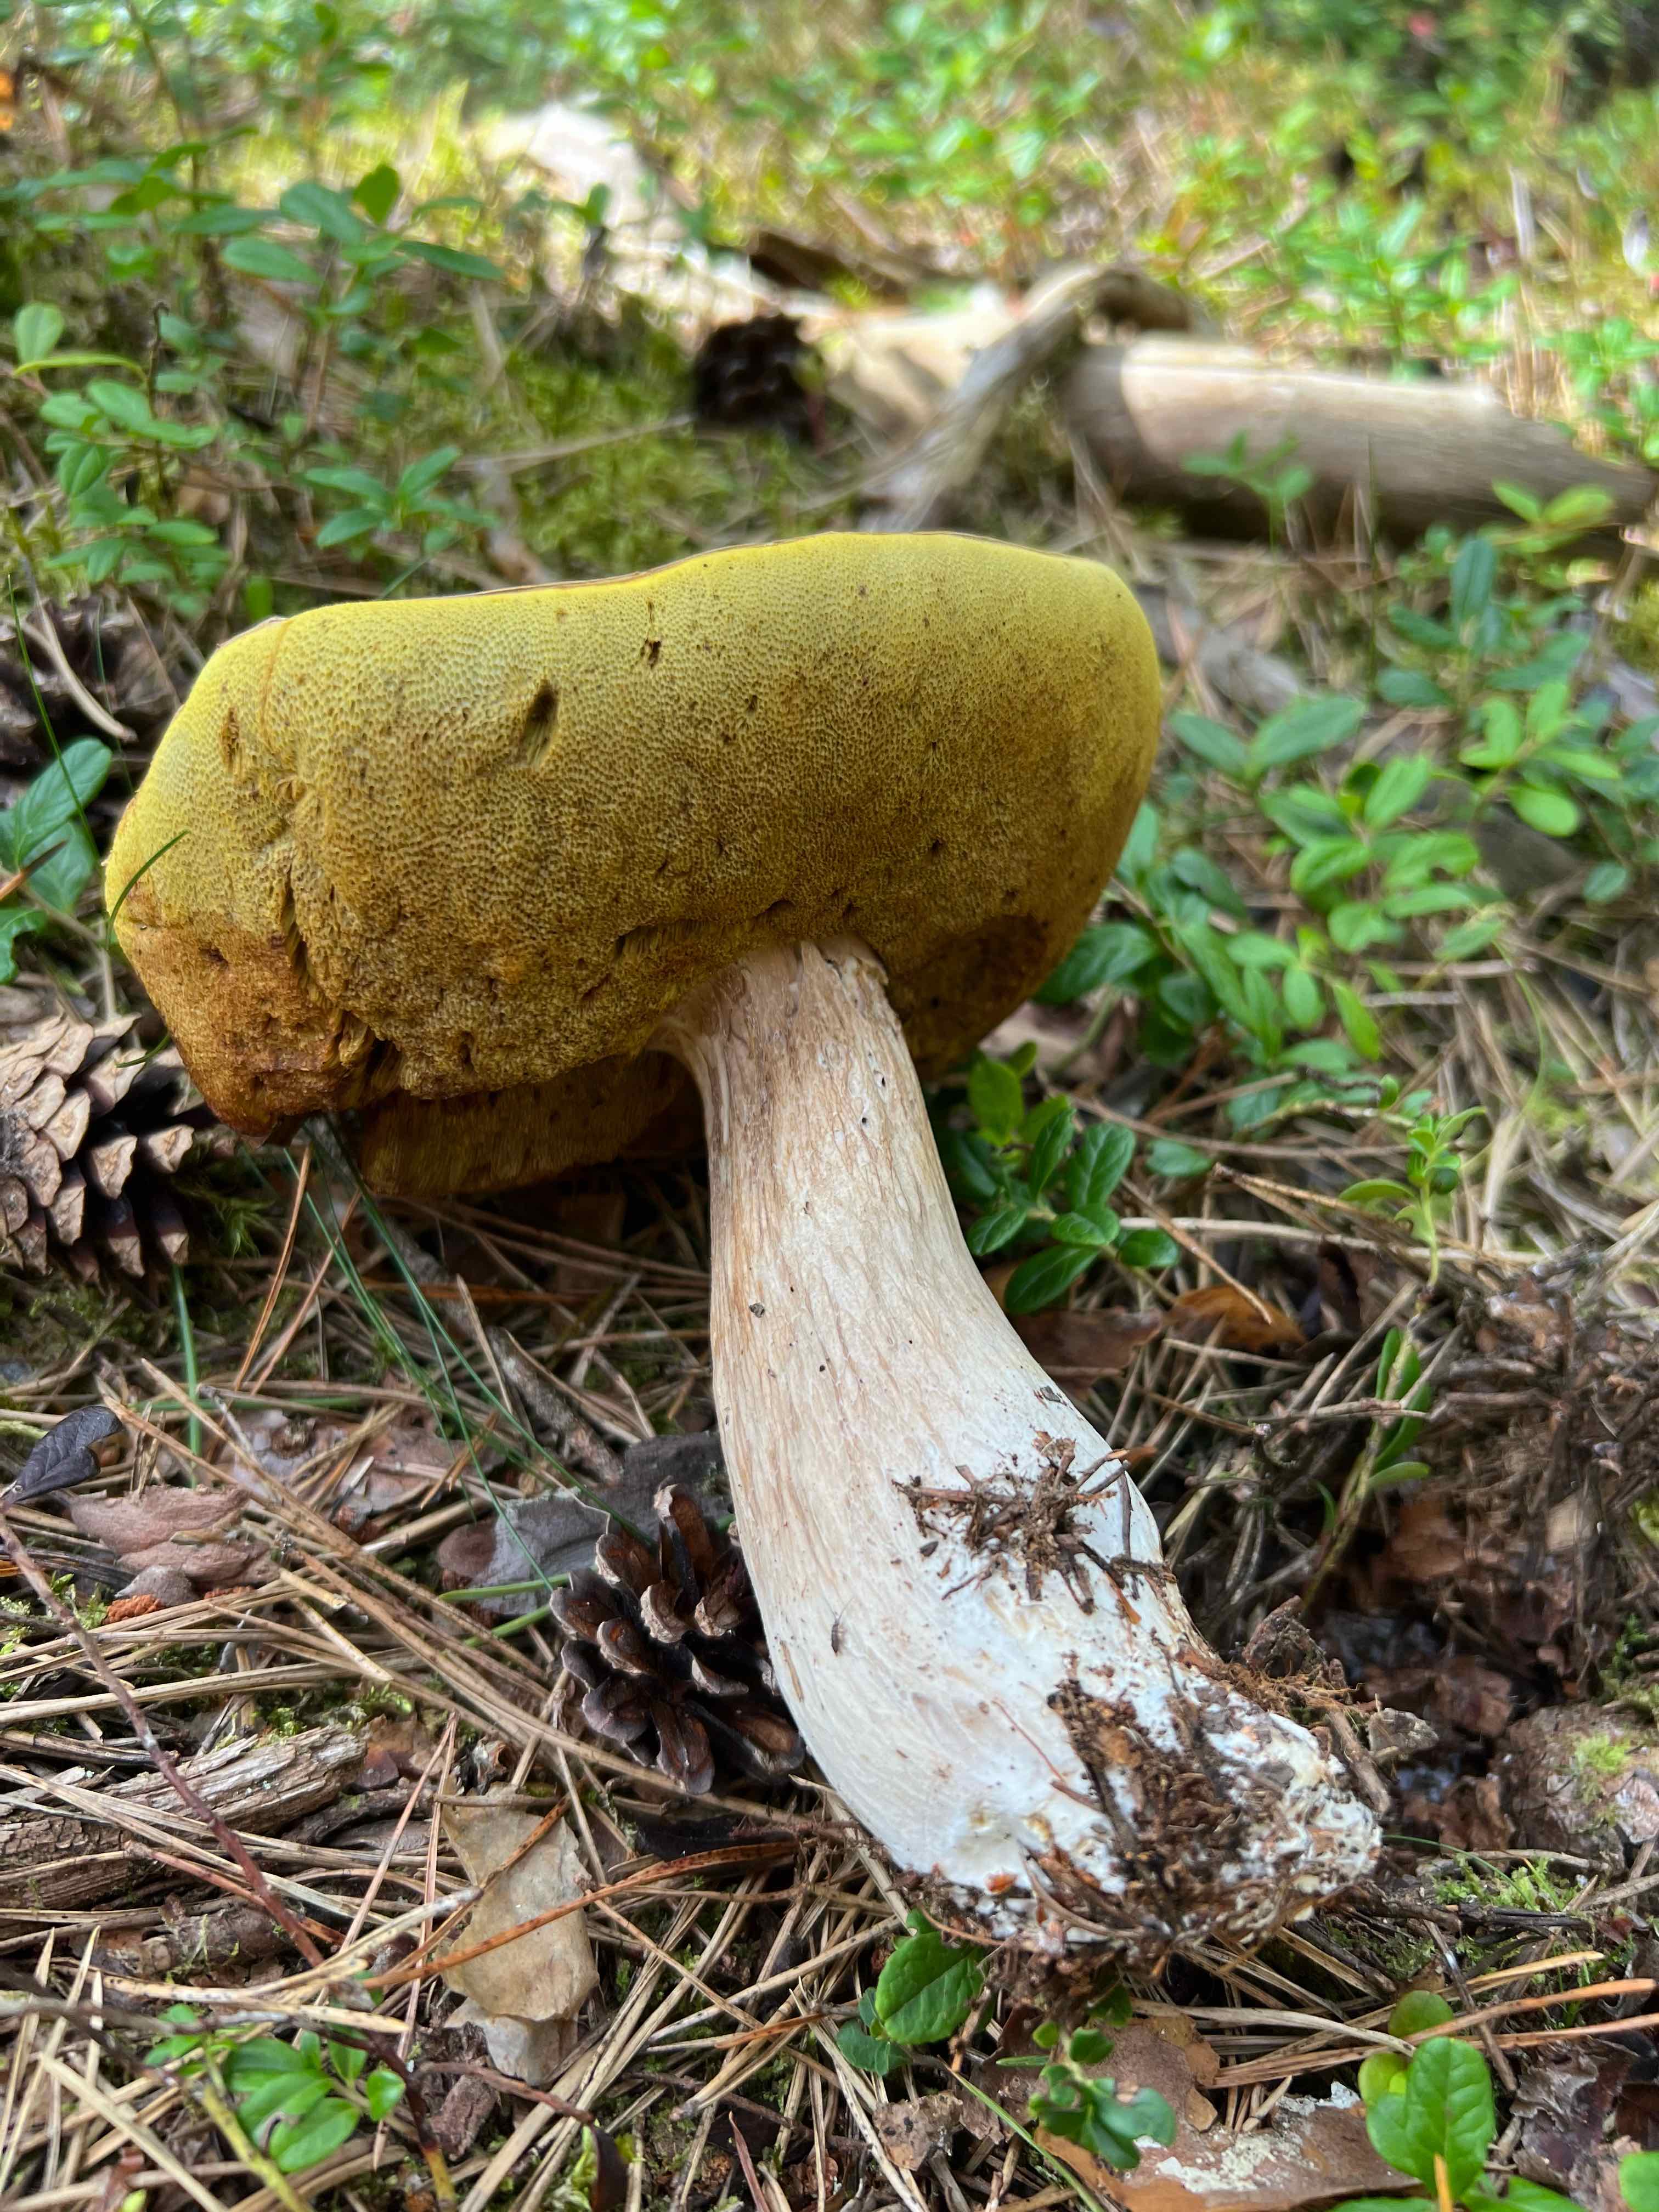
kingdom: Fungi
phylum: Basidiomycota
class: Agaricomycetes
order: Boletales
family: Boletaceae
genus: Boletus
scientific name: Boletus edulis
